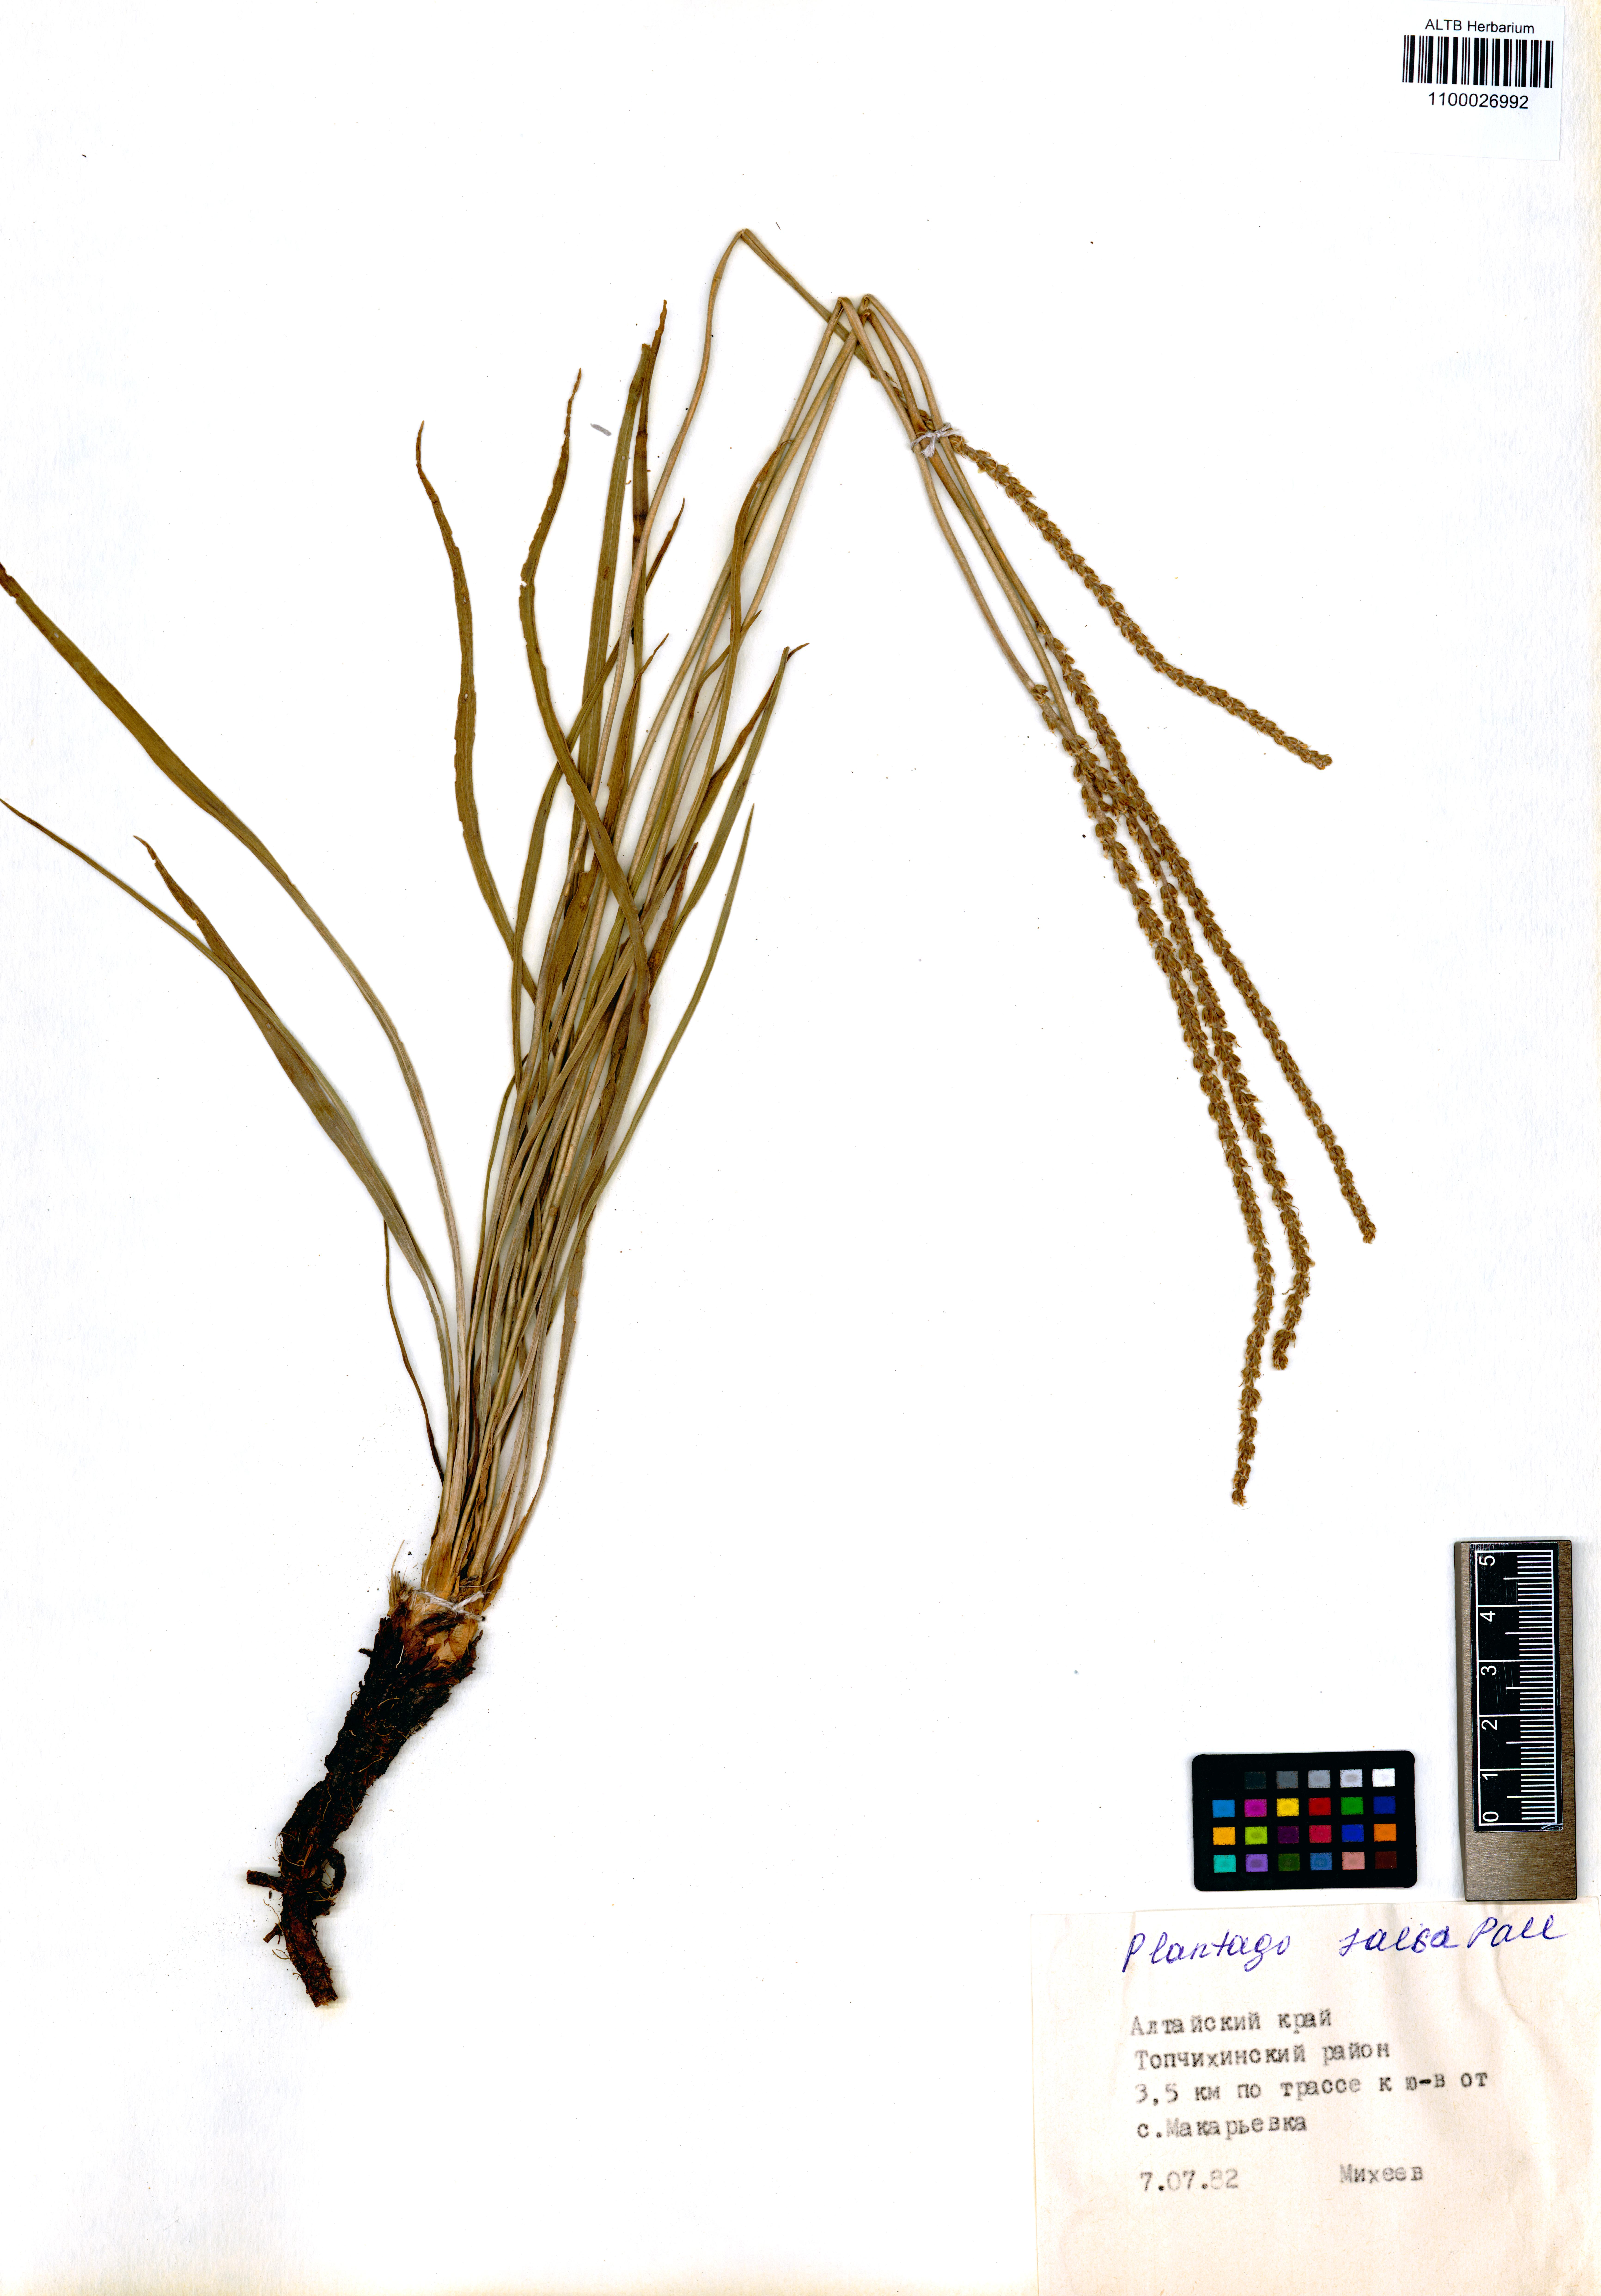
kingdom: Plantae
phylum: Tracheophyta
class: Magnoliopsida
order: Lamiales
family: Plantaginaceae
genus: Plantago
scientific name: Plantago salsa
